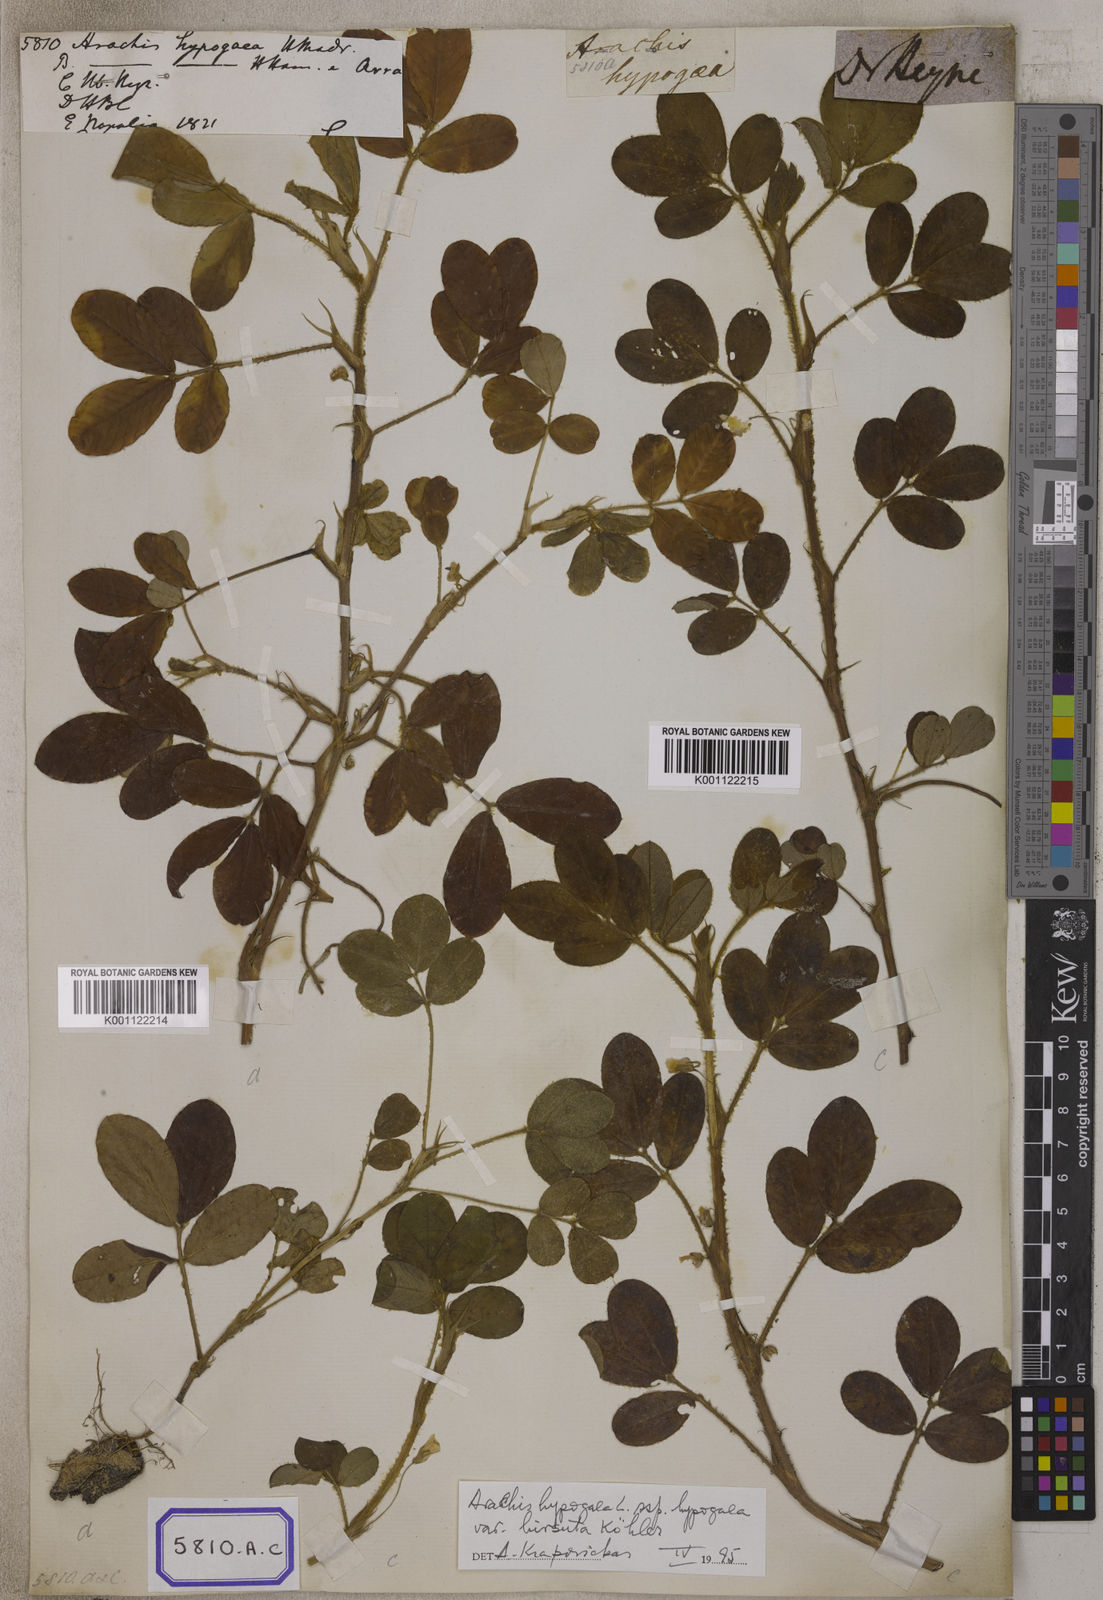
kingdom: Plantae
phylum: Tracheophyta
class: Magnoliopsida
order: Fabales
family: Fabaceae
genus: Arachis
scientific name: Arachis hypogaea
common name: Peanut
